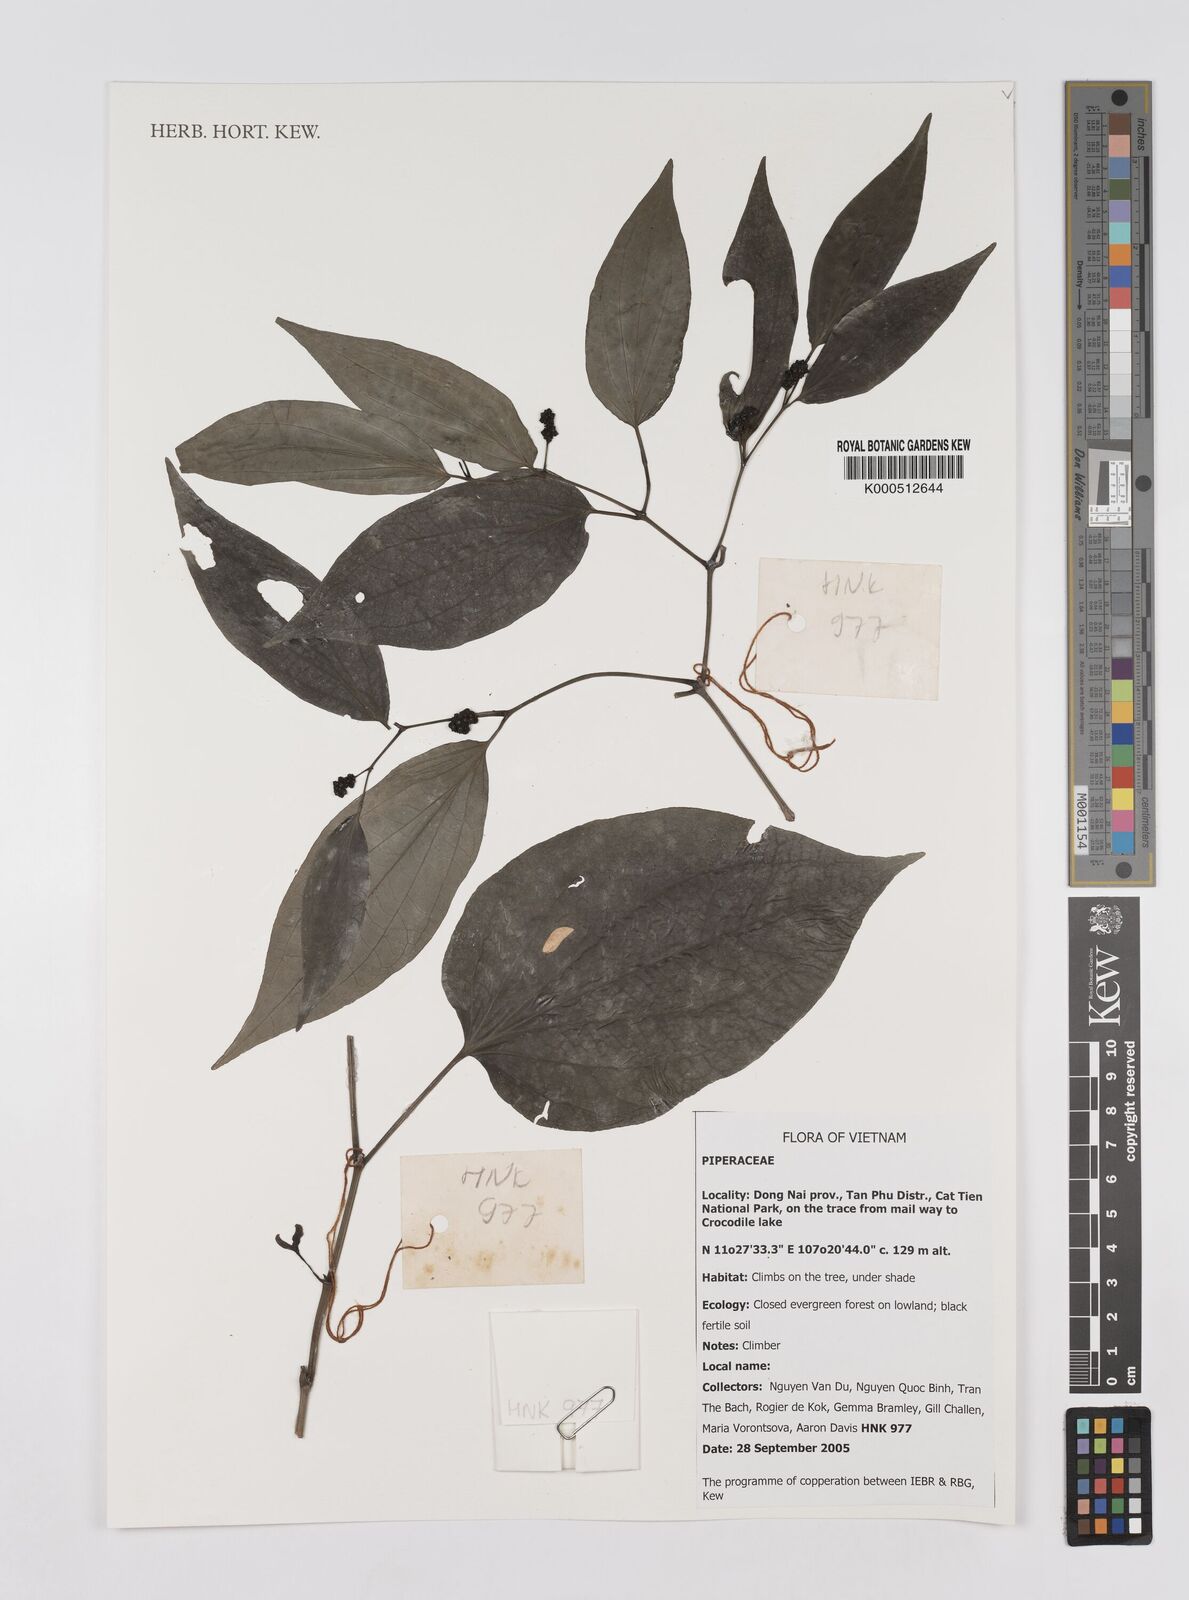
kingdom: Plantae
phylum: Tracheophyta
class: Magnoliopsida
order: Piperales
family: Piperaceae
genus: Piper
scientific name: Piper
